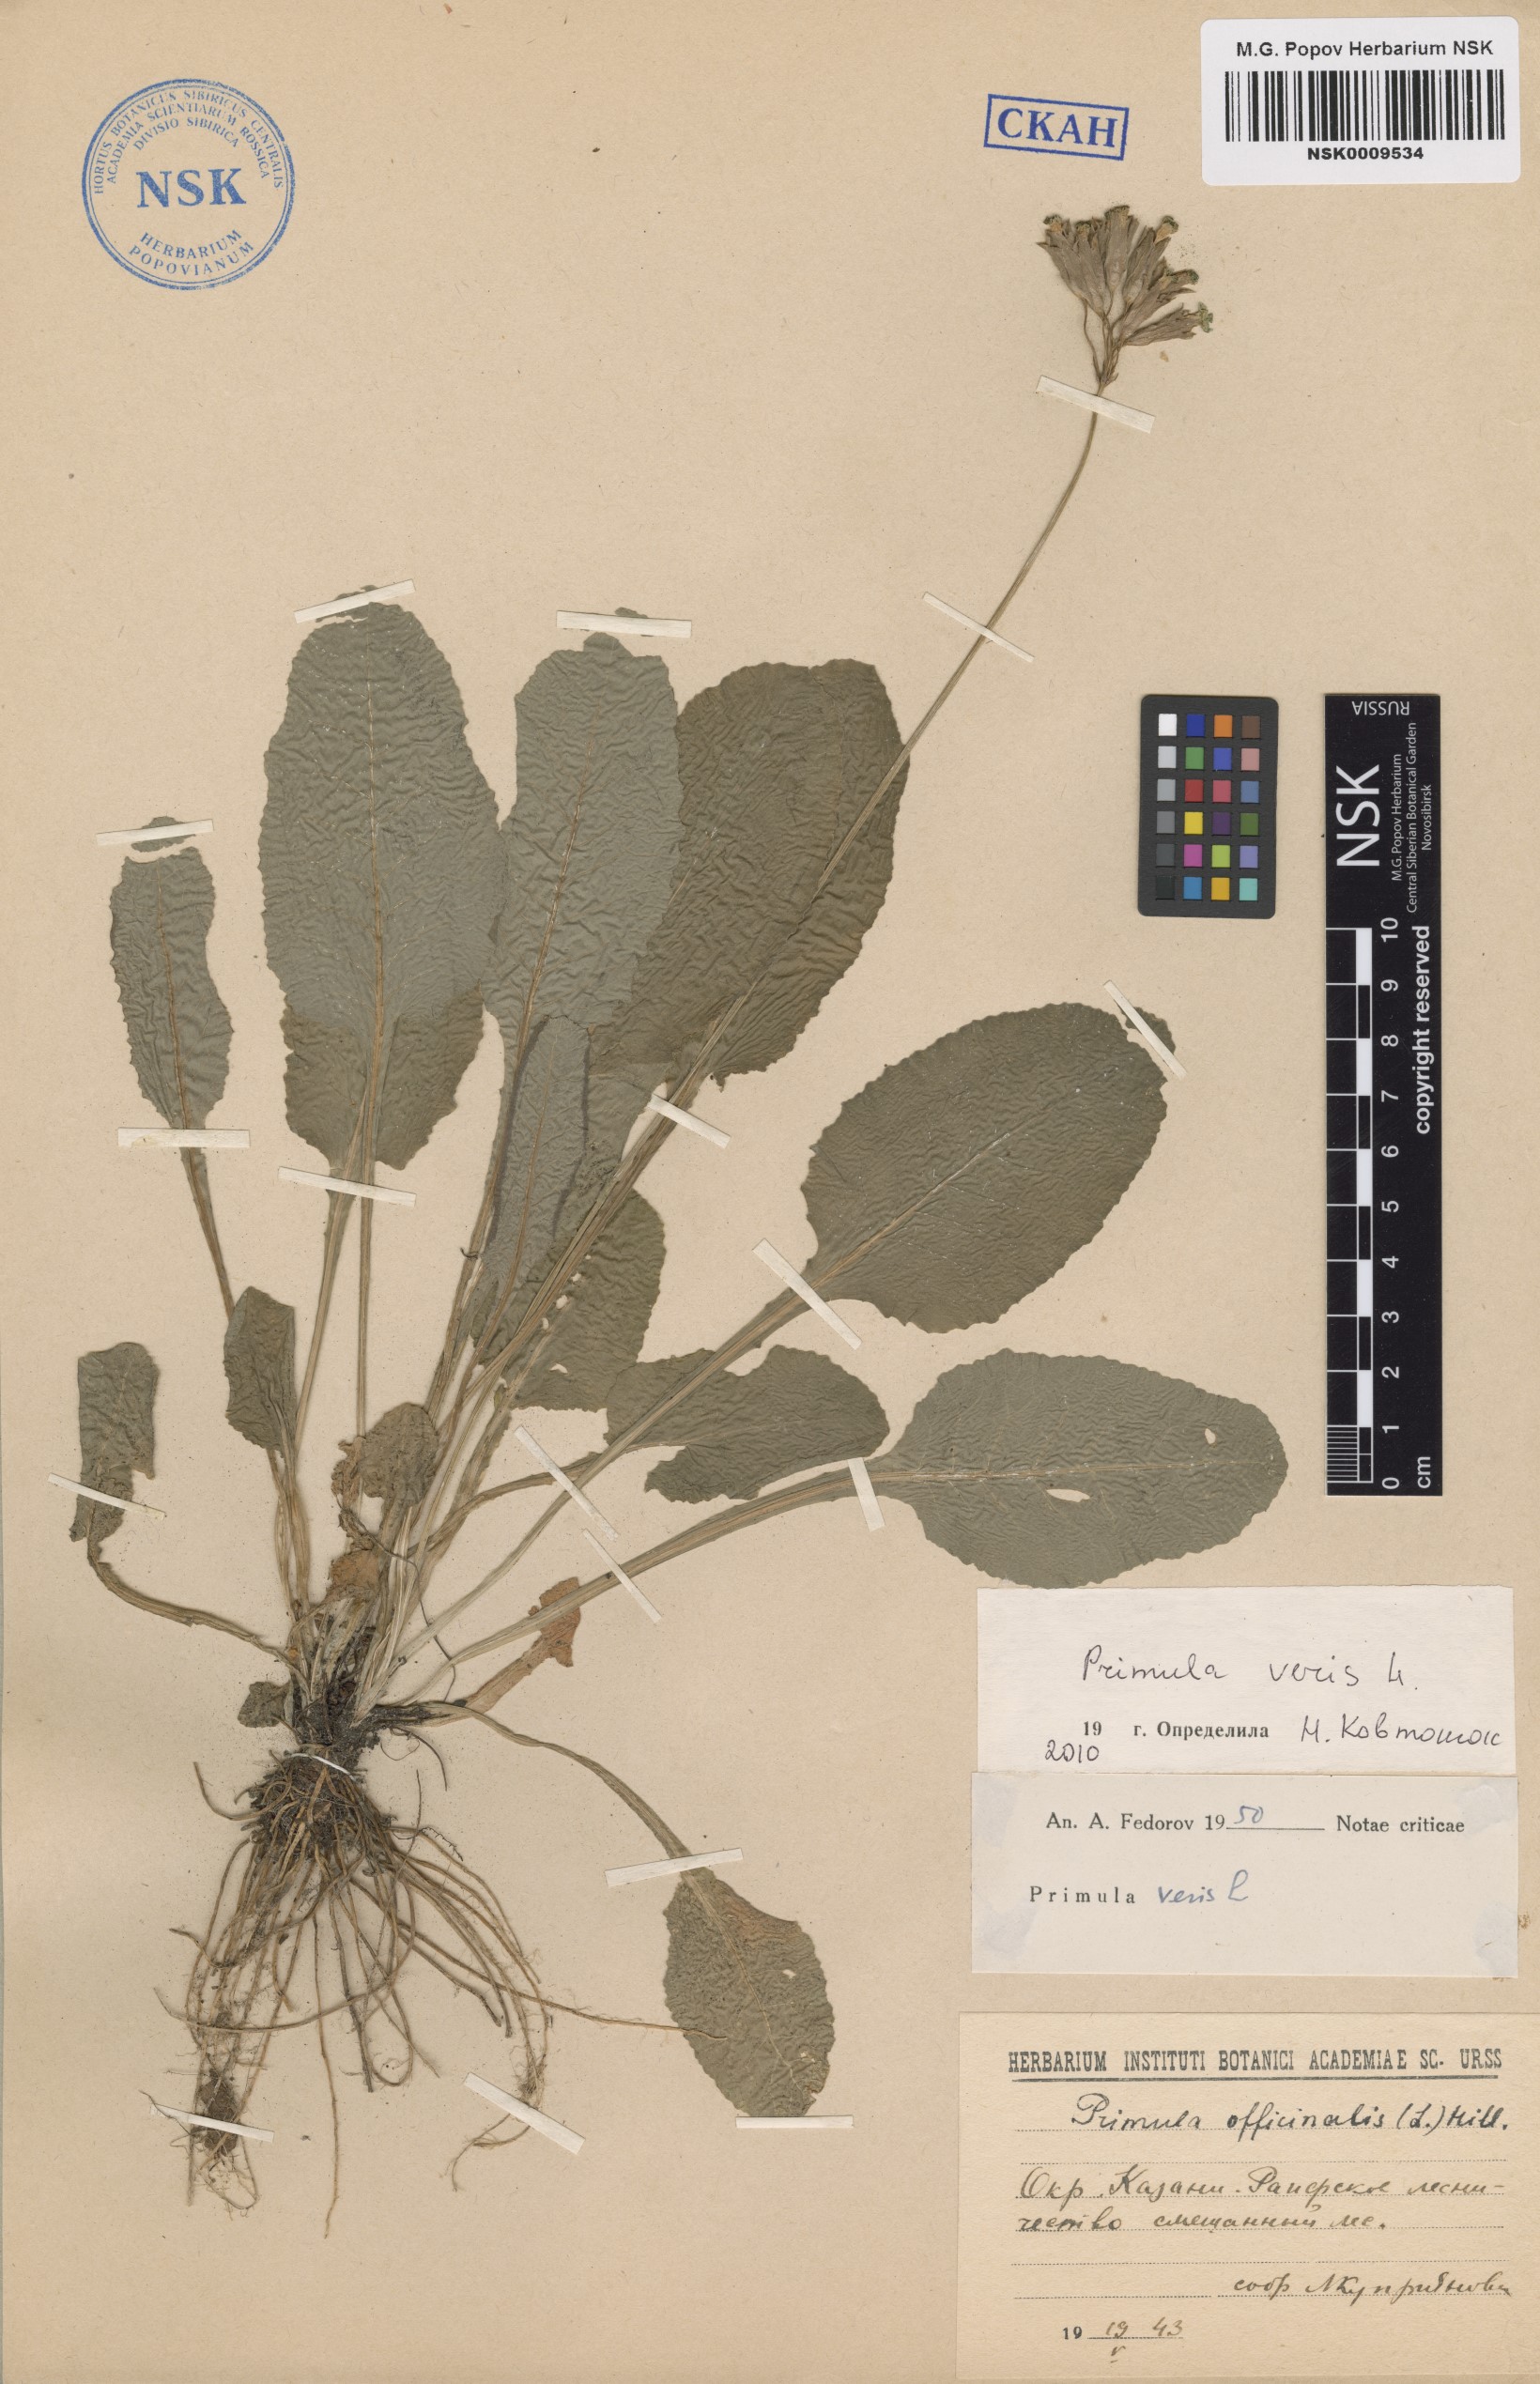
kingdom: Plantae
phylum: Tracheophyta
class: Magnoliopsida
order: Ericales
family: Primulaceae
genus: Primula
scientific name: Primula veris
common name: Cowslip
